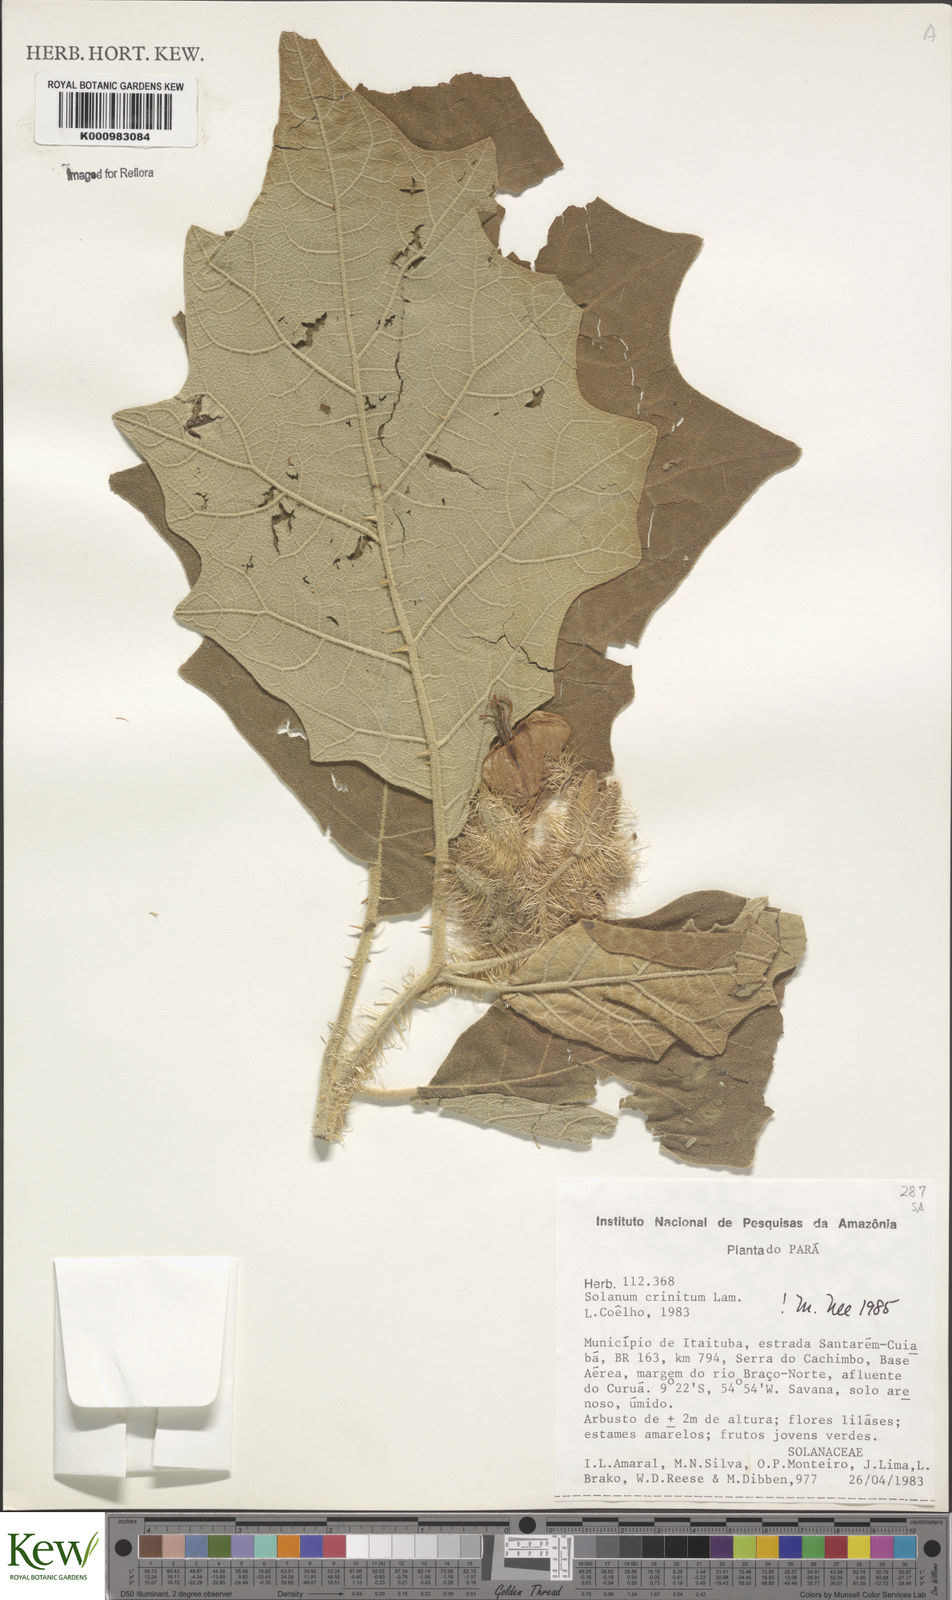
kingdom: Plantae
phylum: Tracheophyta
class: Magnoliopsida
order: Solanales
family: Solanaceae
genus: Solanum
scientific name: Solanum crinitum
